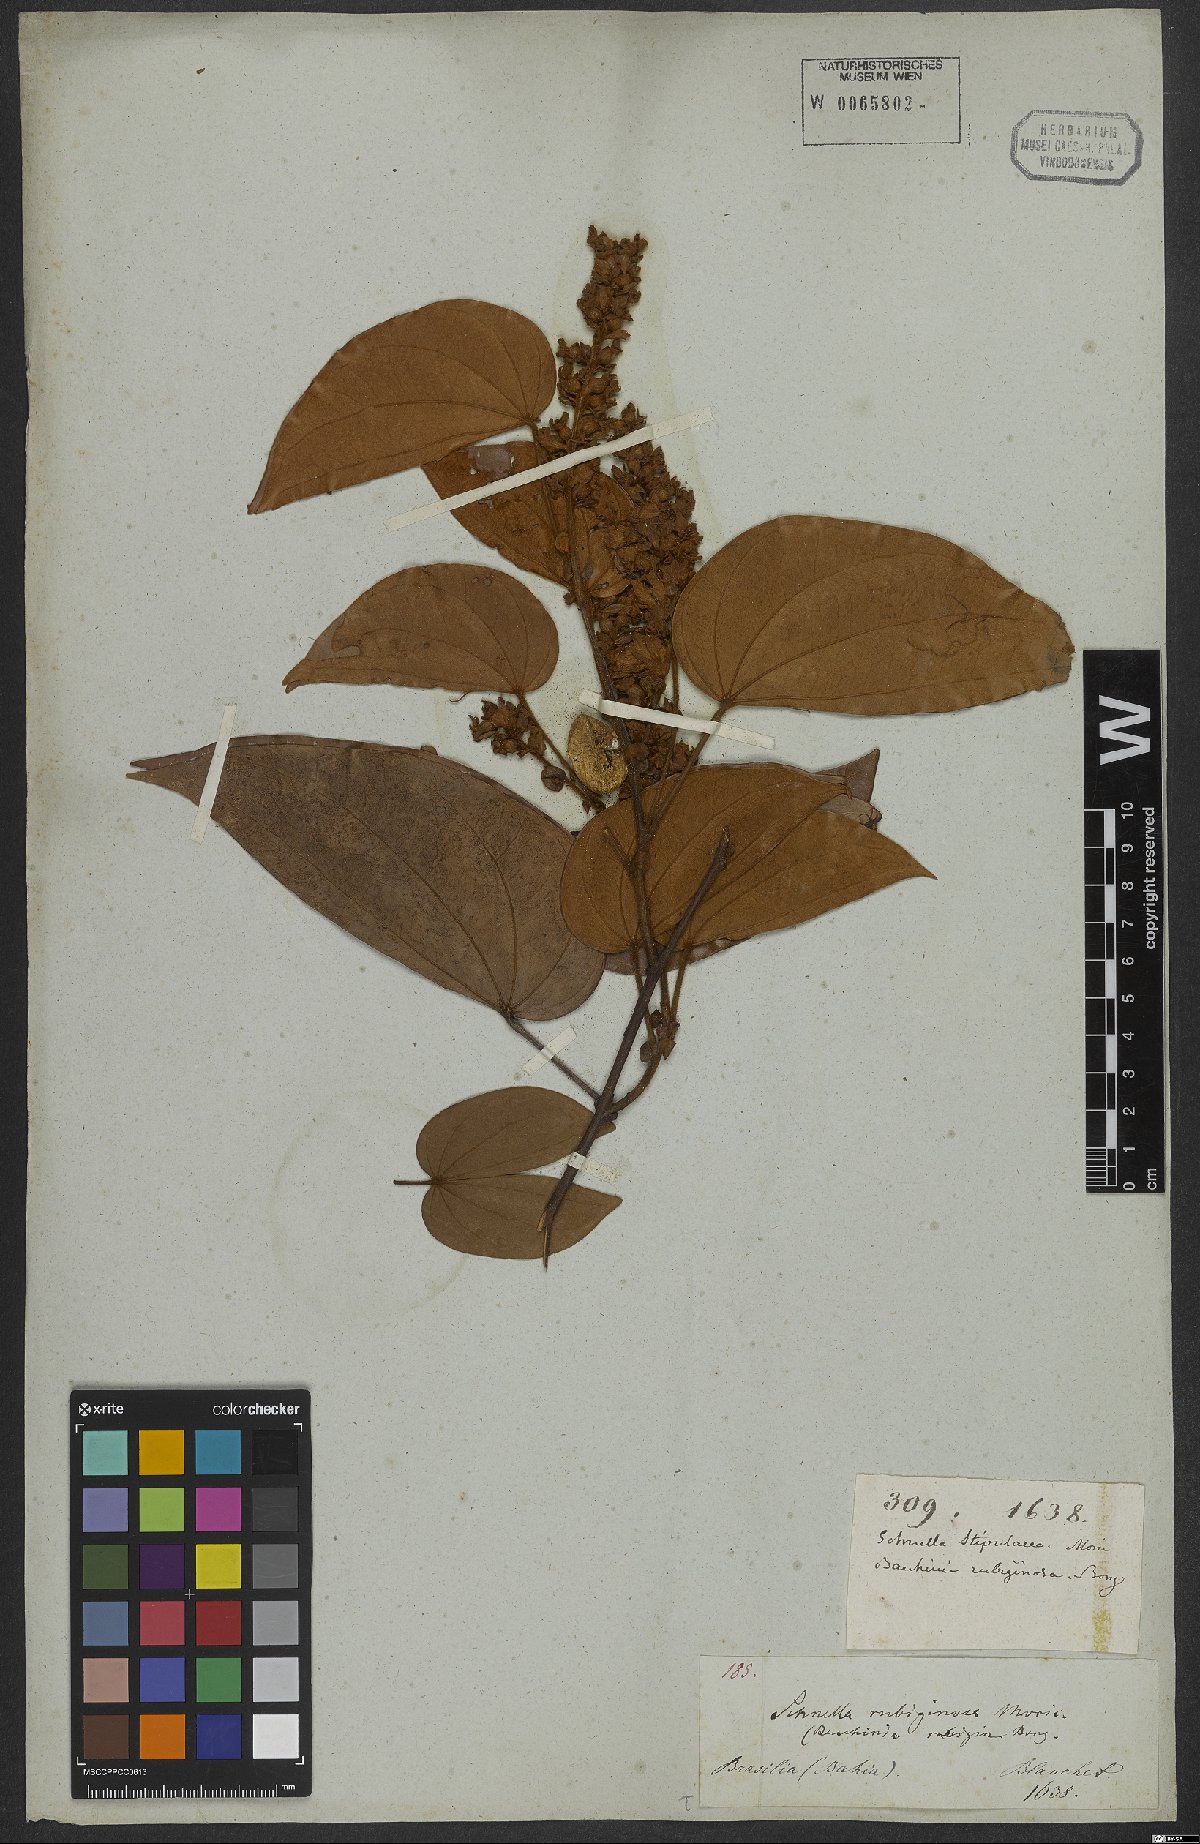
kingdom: Plantae
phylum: Tracheophyta
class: Magnoliopsida
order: Fabales
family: Fabaceae
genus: Schnella
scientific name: Schnella outimouta
